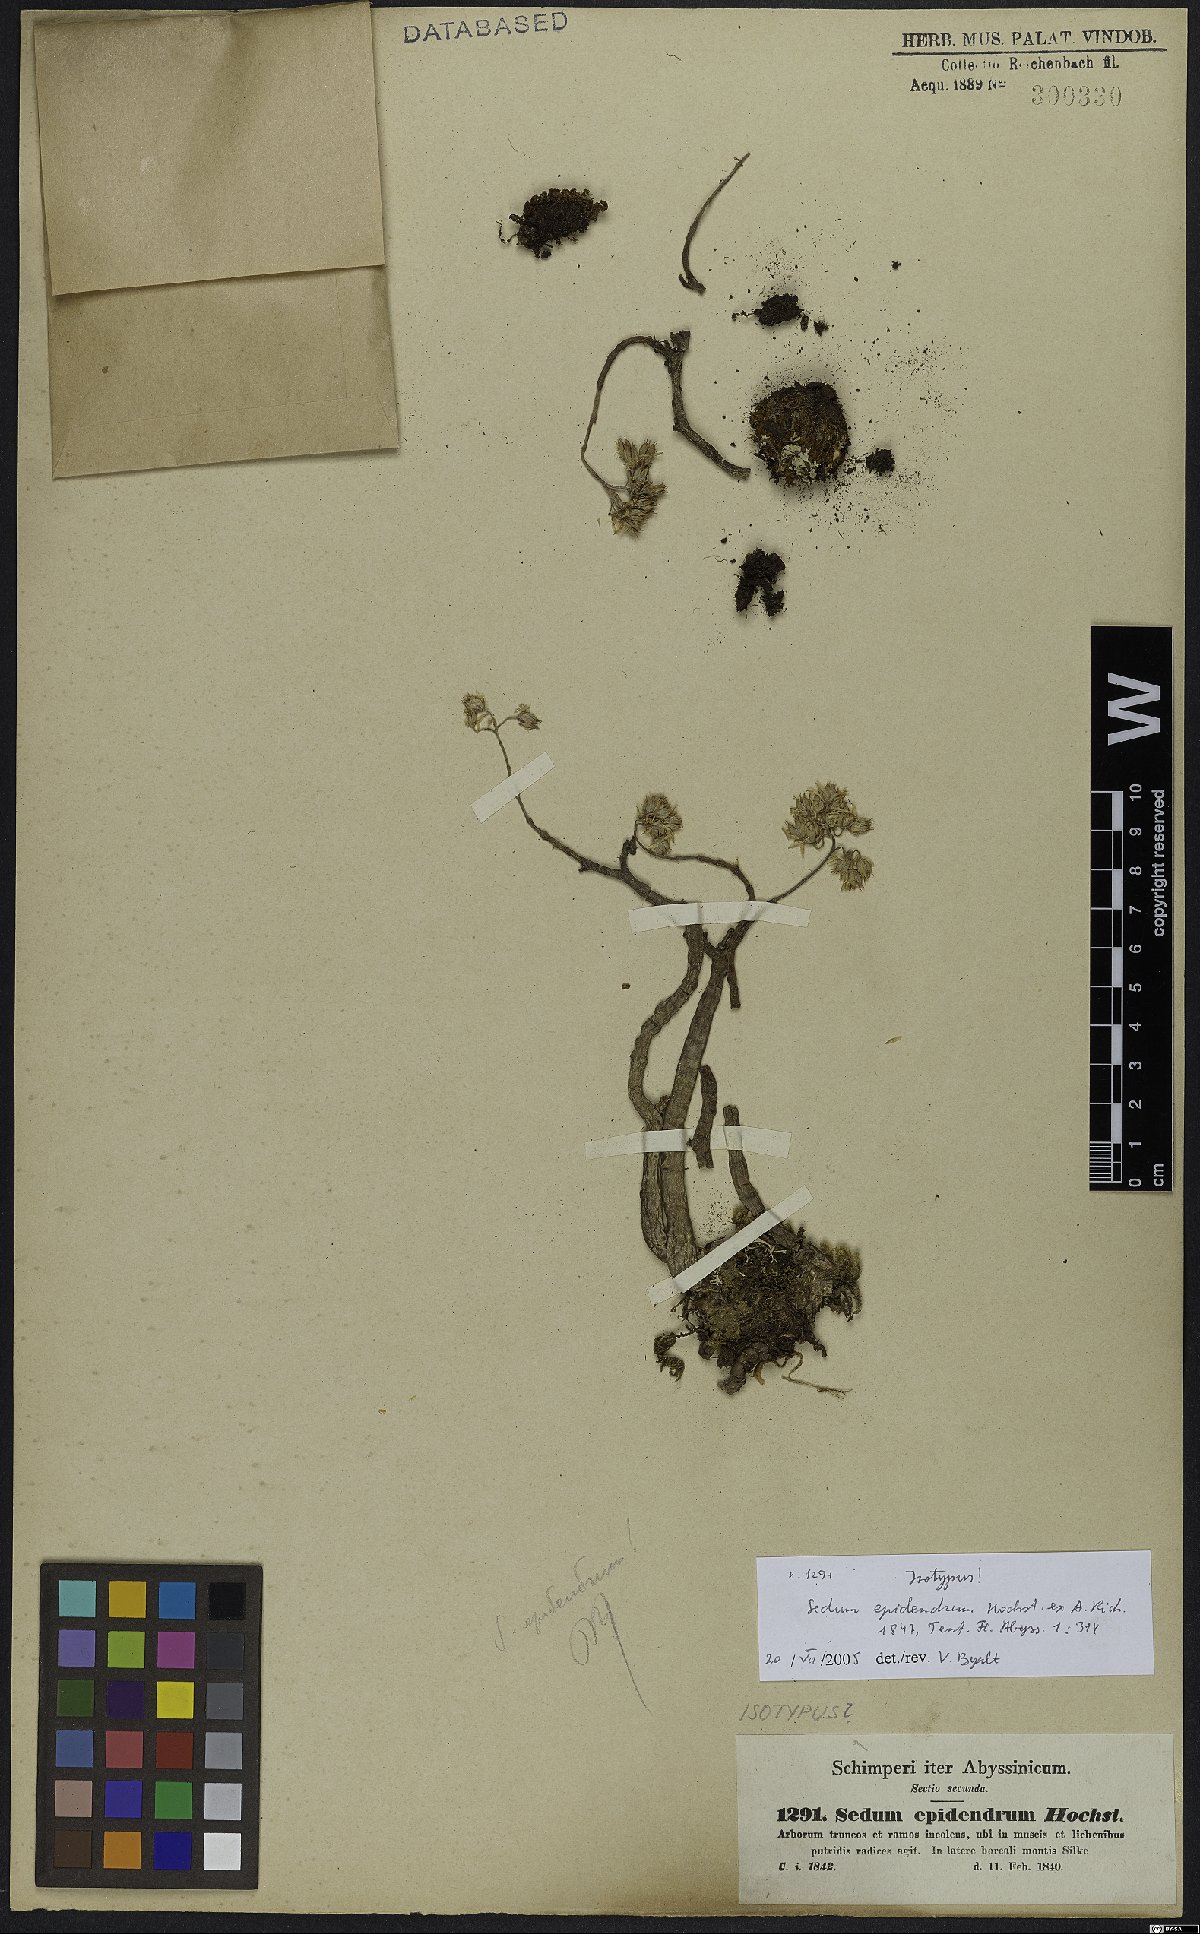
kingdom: Plantae
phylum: Tracheophyta
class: Magnoliopsida
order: Saxifragales
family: Crassulaceae
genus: Sedum
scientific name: Sedum epidendrum
